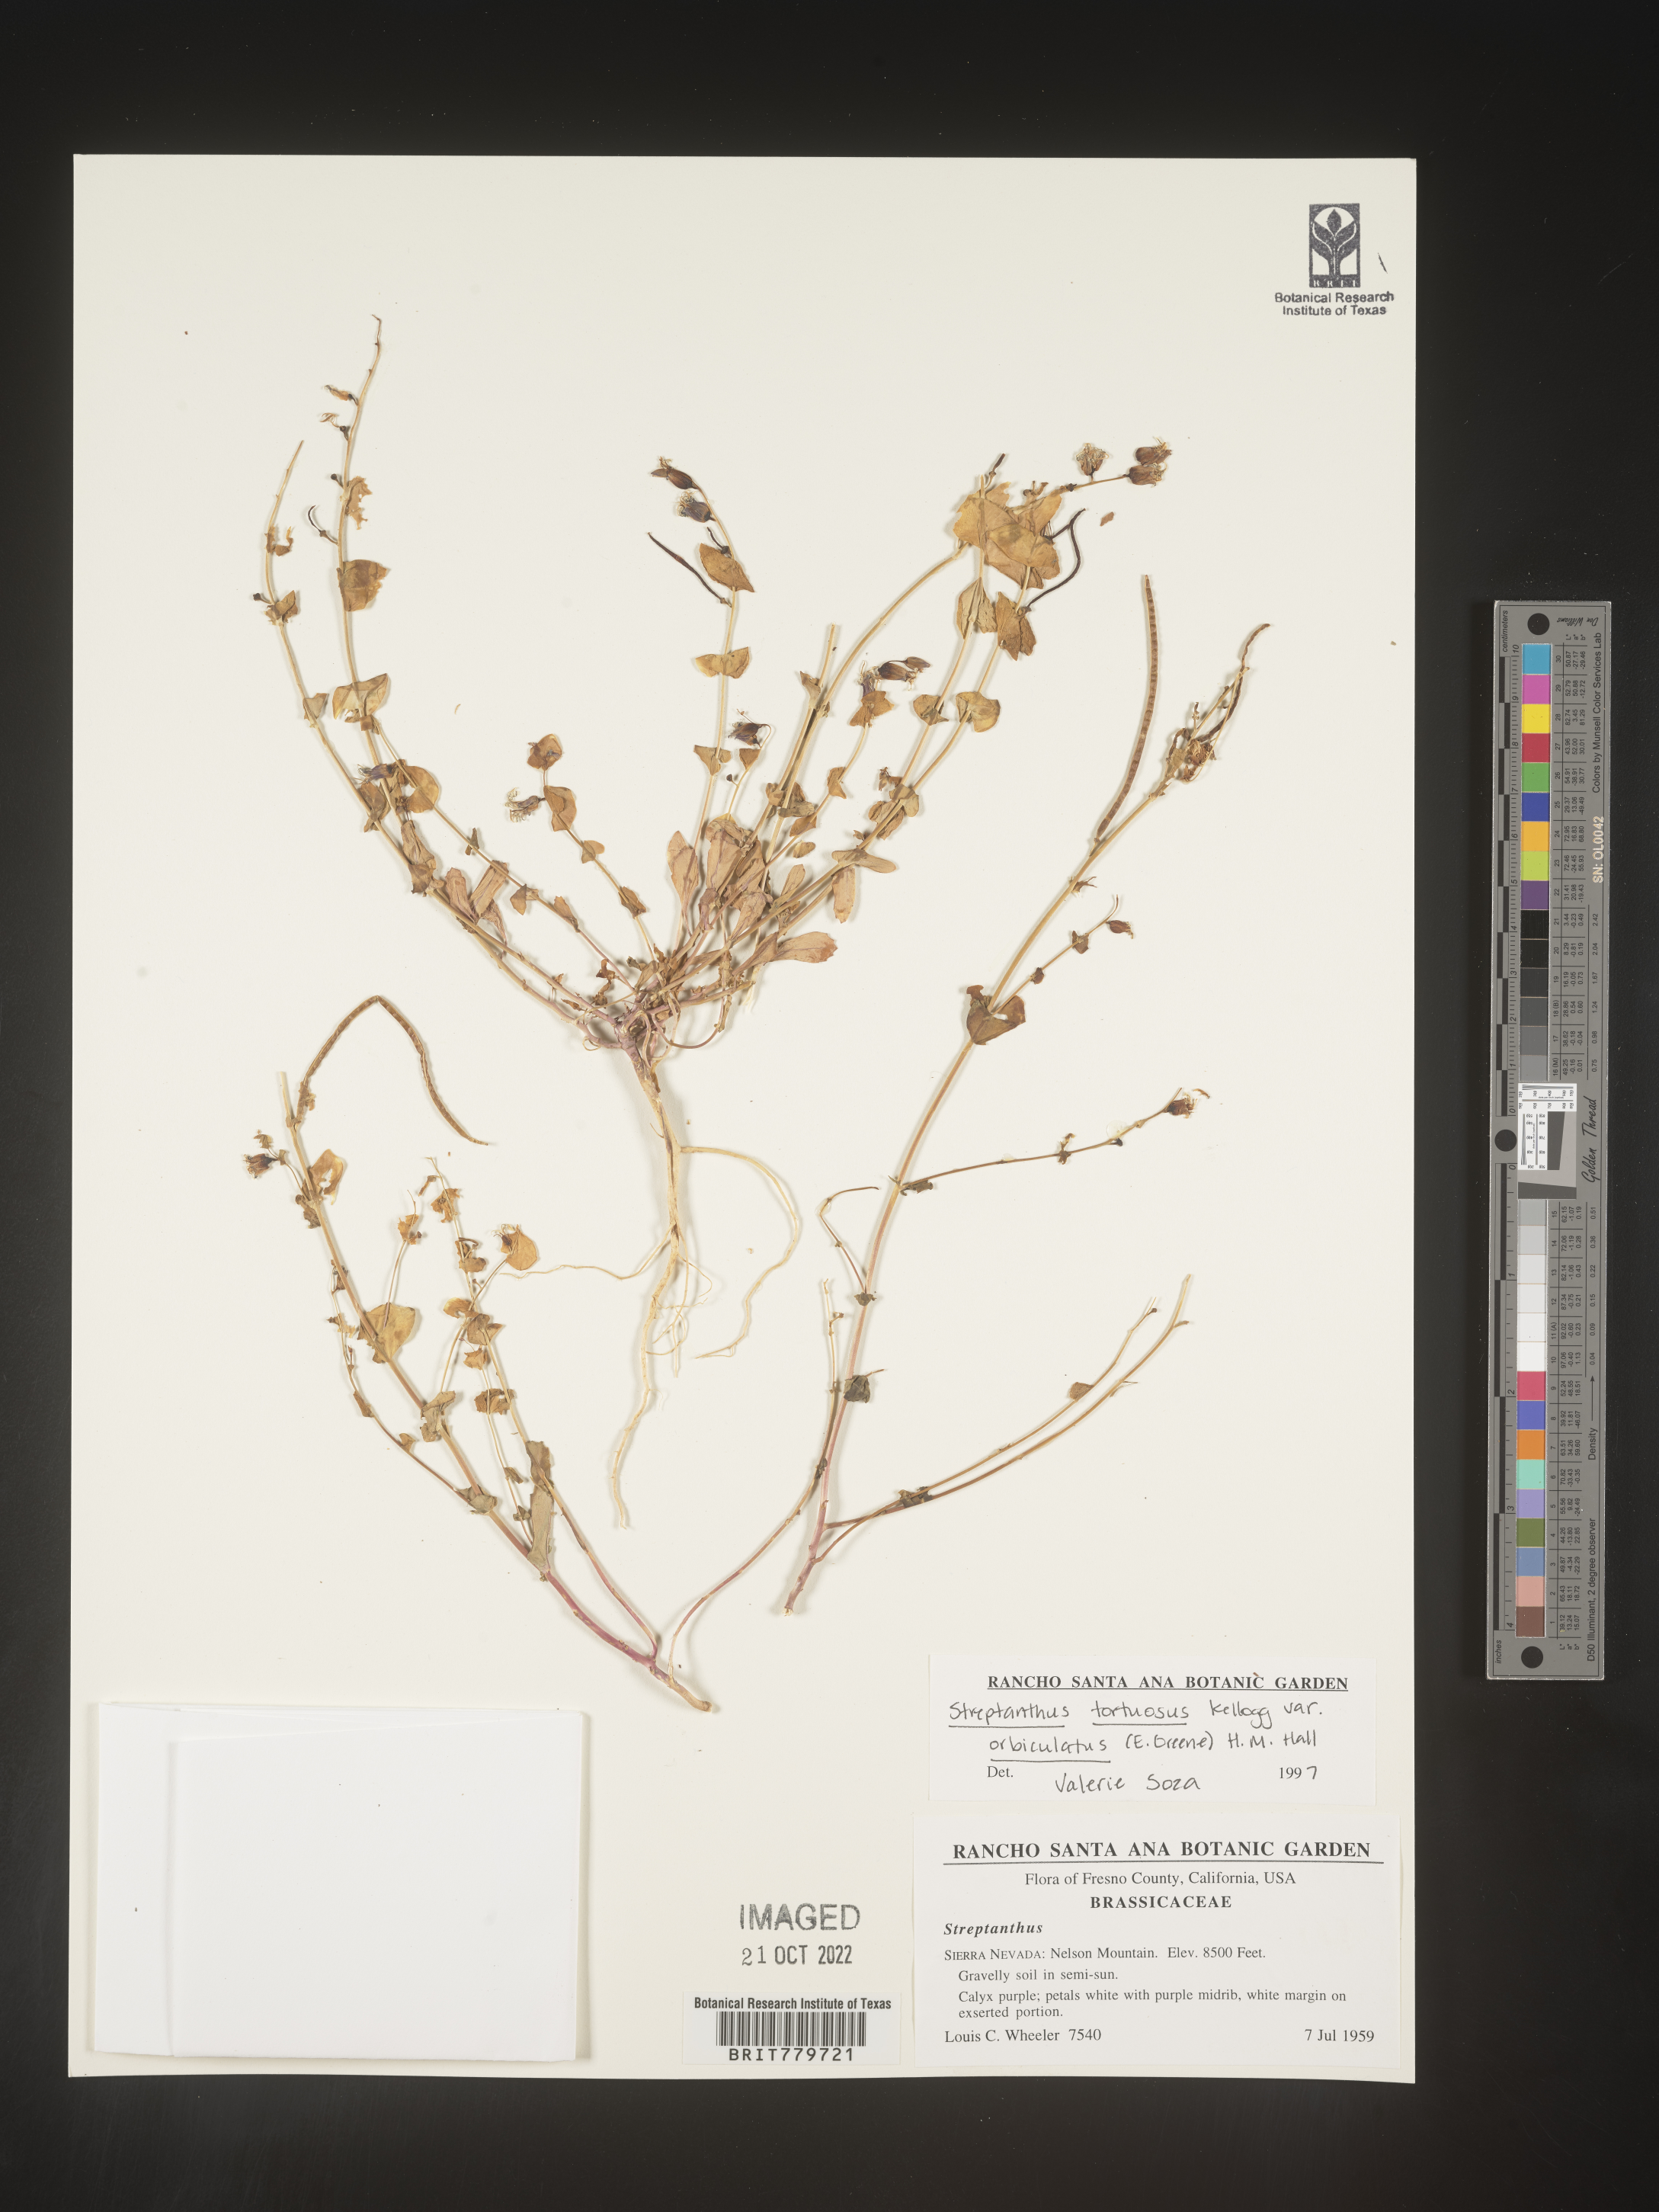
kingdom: Plantae
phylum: Tracheophyta
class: Magnoliopsida
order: Brassicales
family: Brassicaceae
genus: Streptanthus
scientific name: Streptanthus
